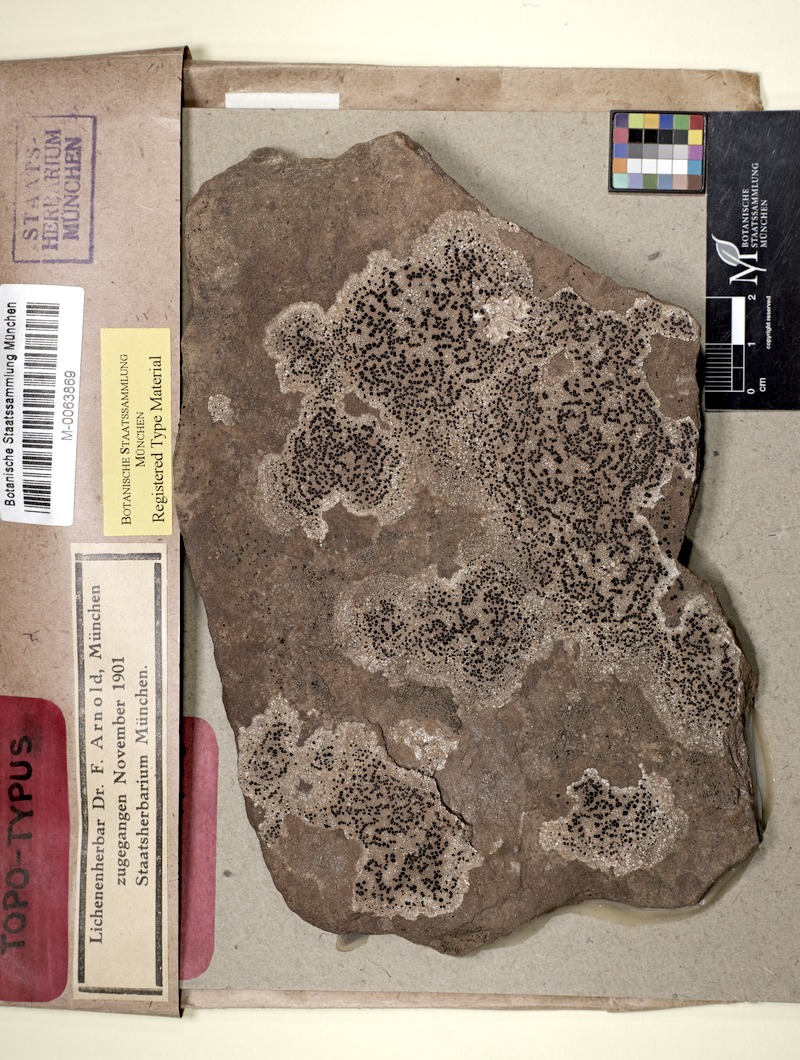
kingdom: Fungi
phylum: Ascomycota
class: Lecanoromycetes
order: Lecideales
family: Lecideaceae
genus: Lecidea
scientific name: Lecidea confluescens
